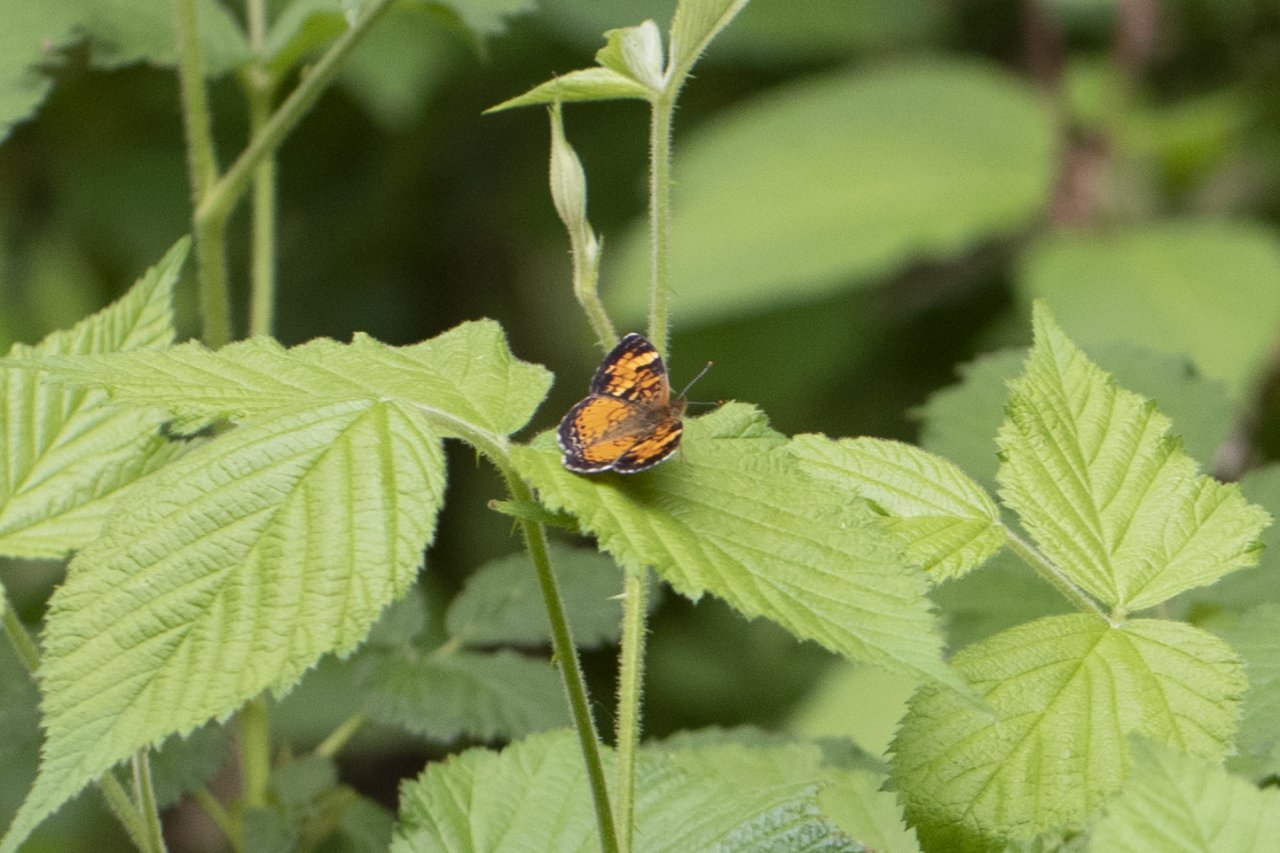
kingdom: Animalia
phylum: Arthropoda
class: Insecta
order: Lepidoptera
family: Nymphalidae
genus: Phyciodes
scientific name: Phyciodes tharos
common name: Northern Crescent
